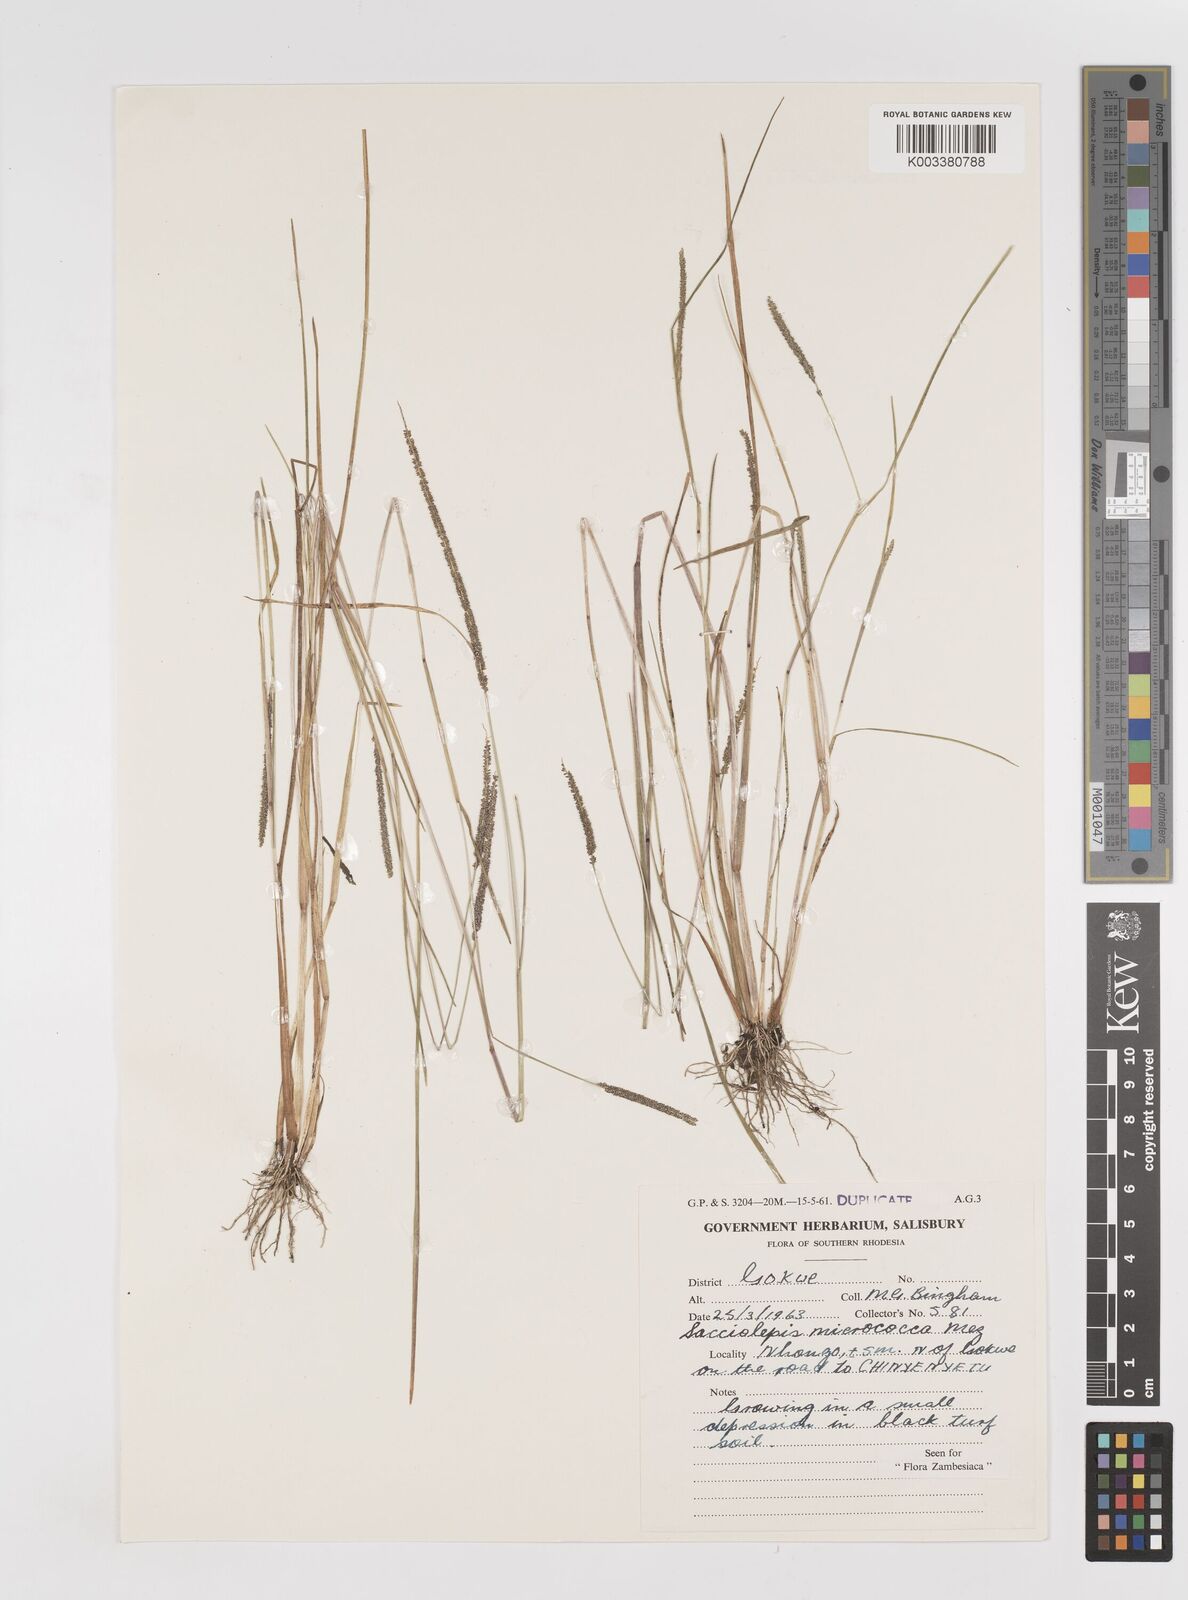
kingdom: Plantae
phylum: Tracheophyta
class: Liliopsida
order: Poales
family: Poaceae
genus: Sacciolepis
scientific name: Sacciolepis micrococca
